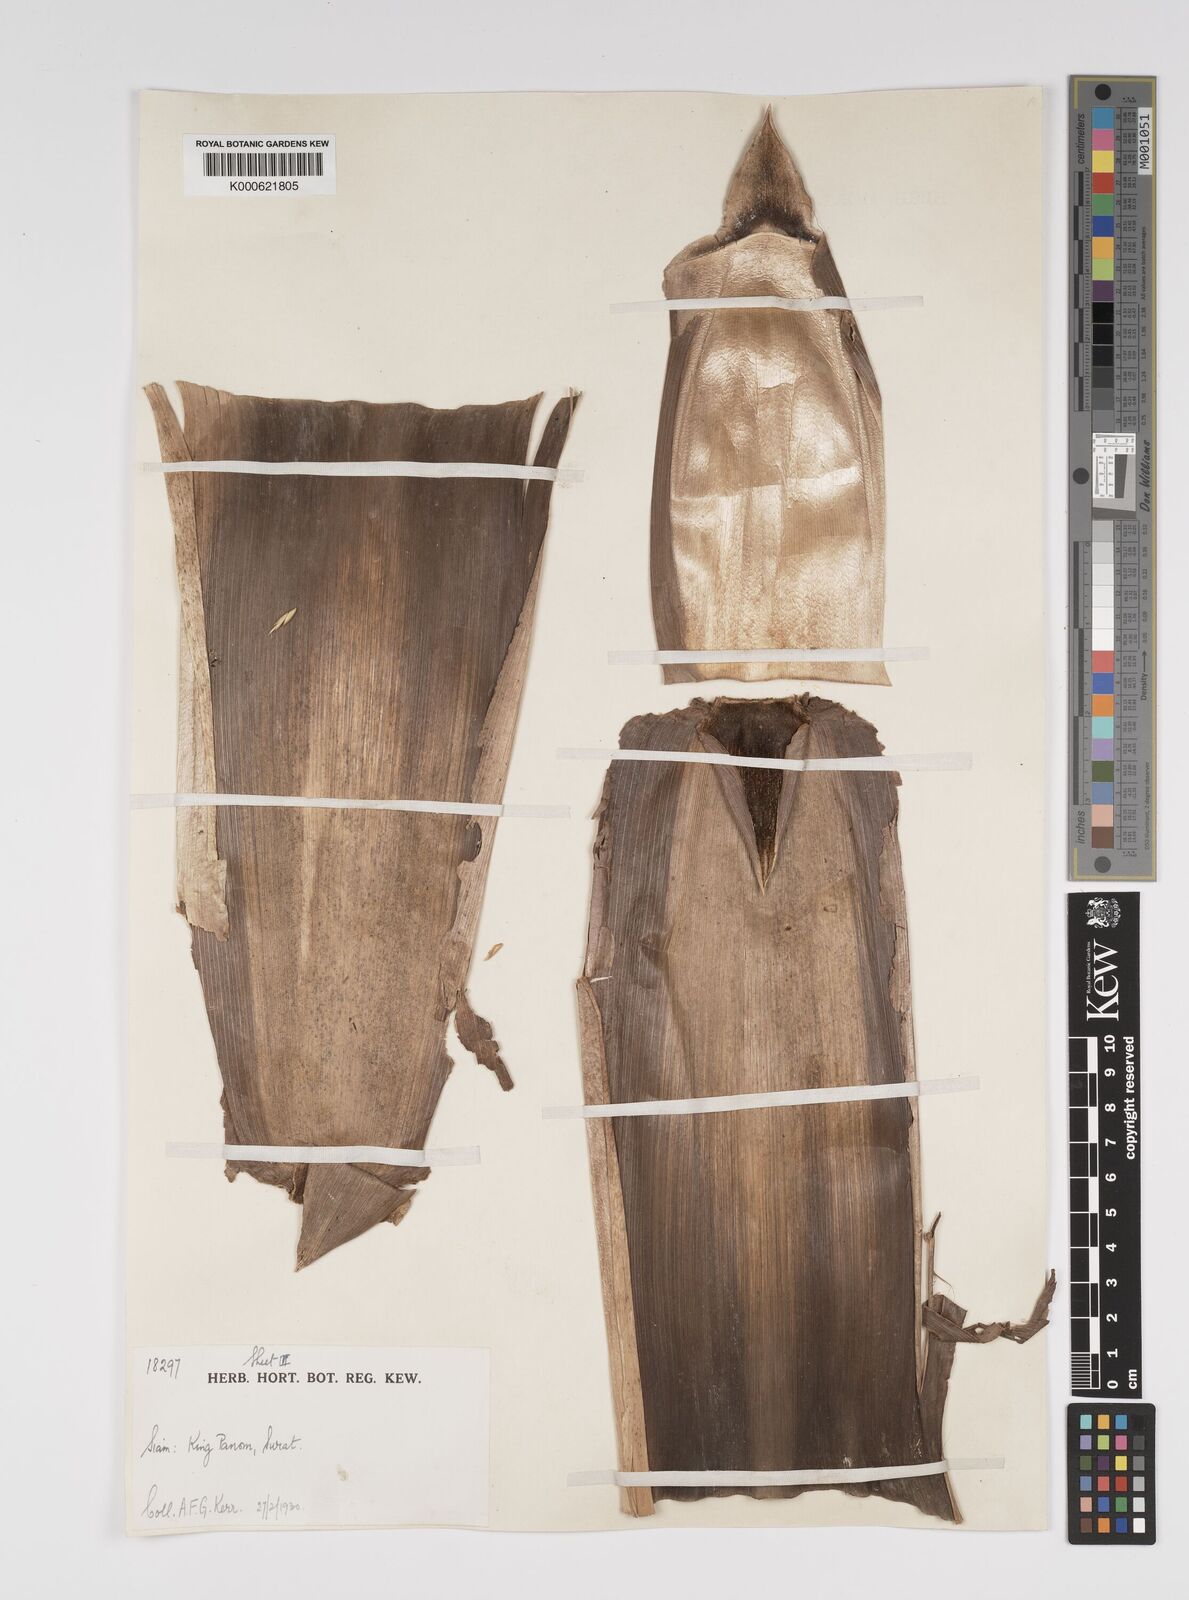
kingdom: Plantae
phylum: Tracheophyta
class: Liliopsida
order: Poales
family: Poaceae
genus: Bambusa
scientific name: Bambusa bambos
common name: Indian thorny bamboo
